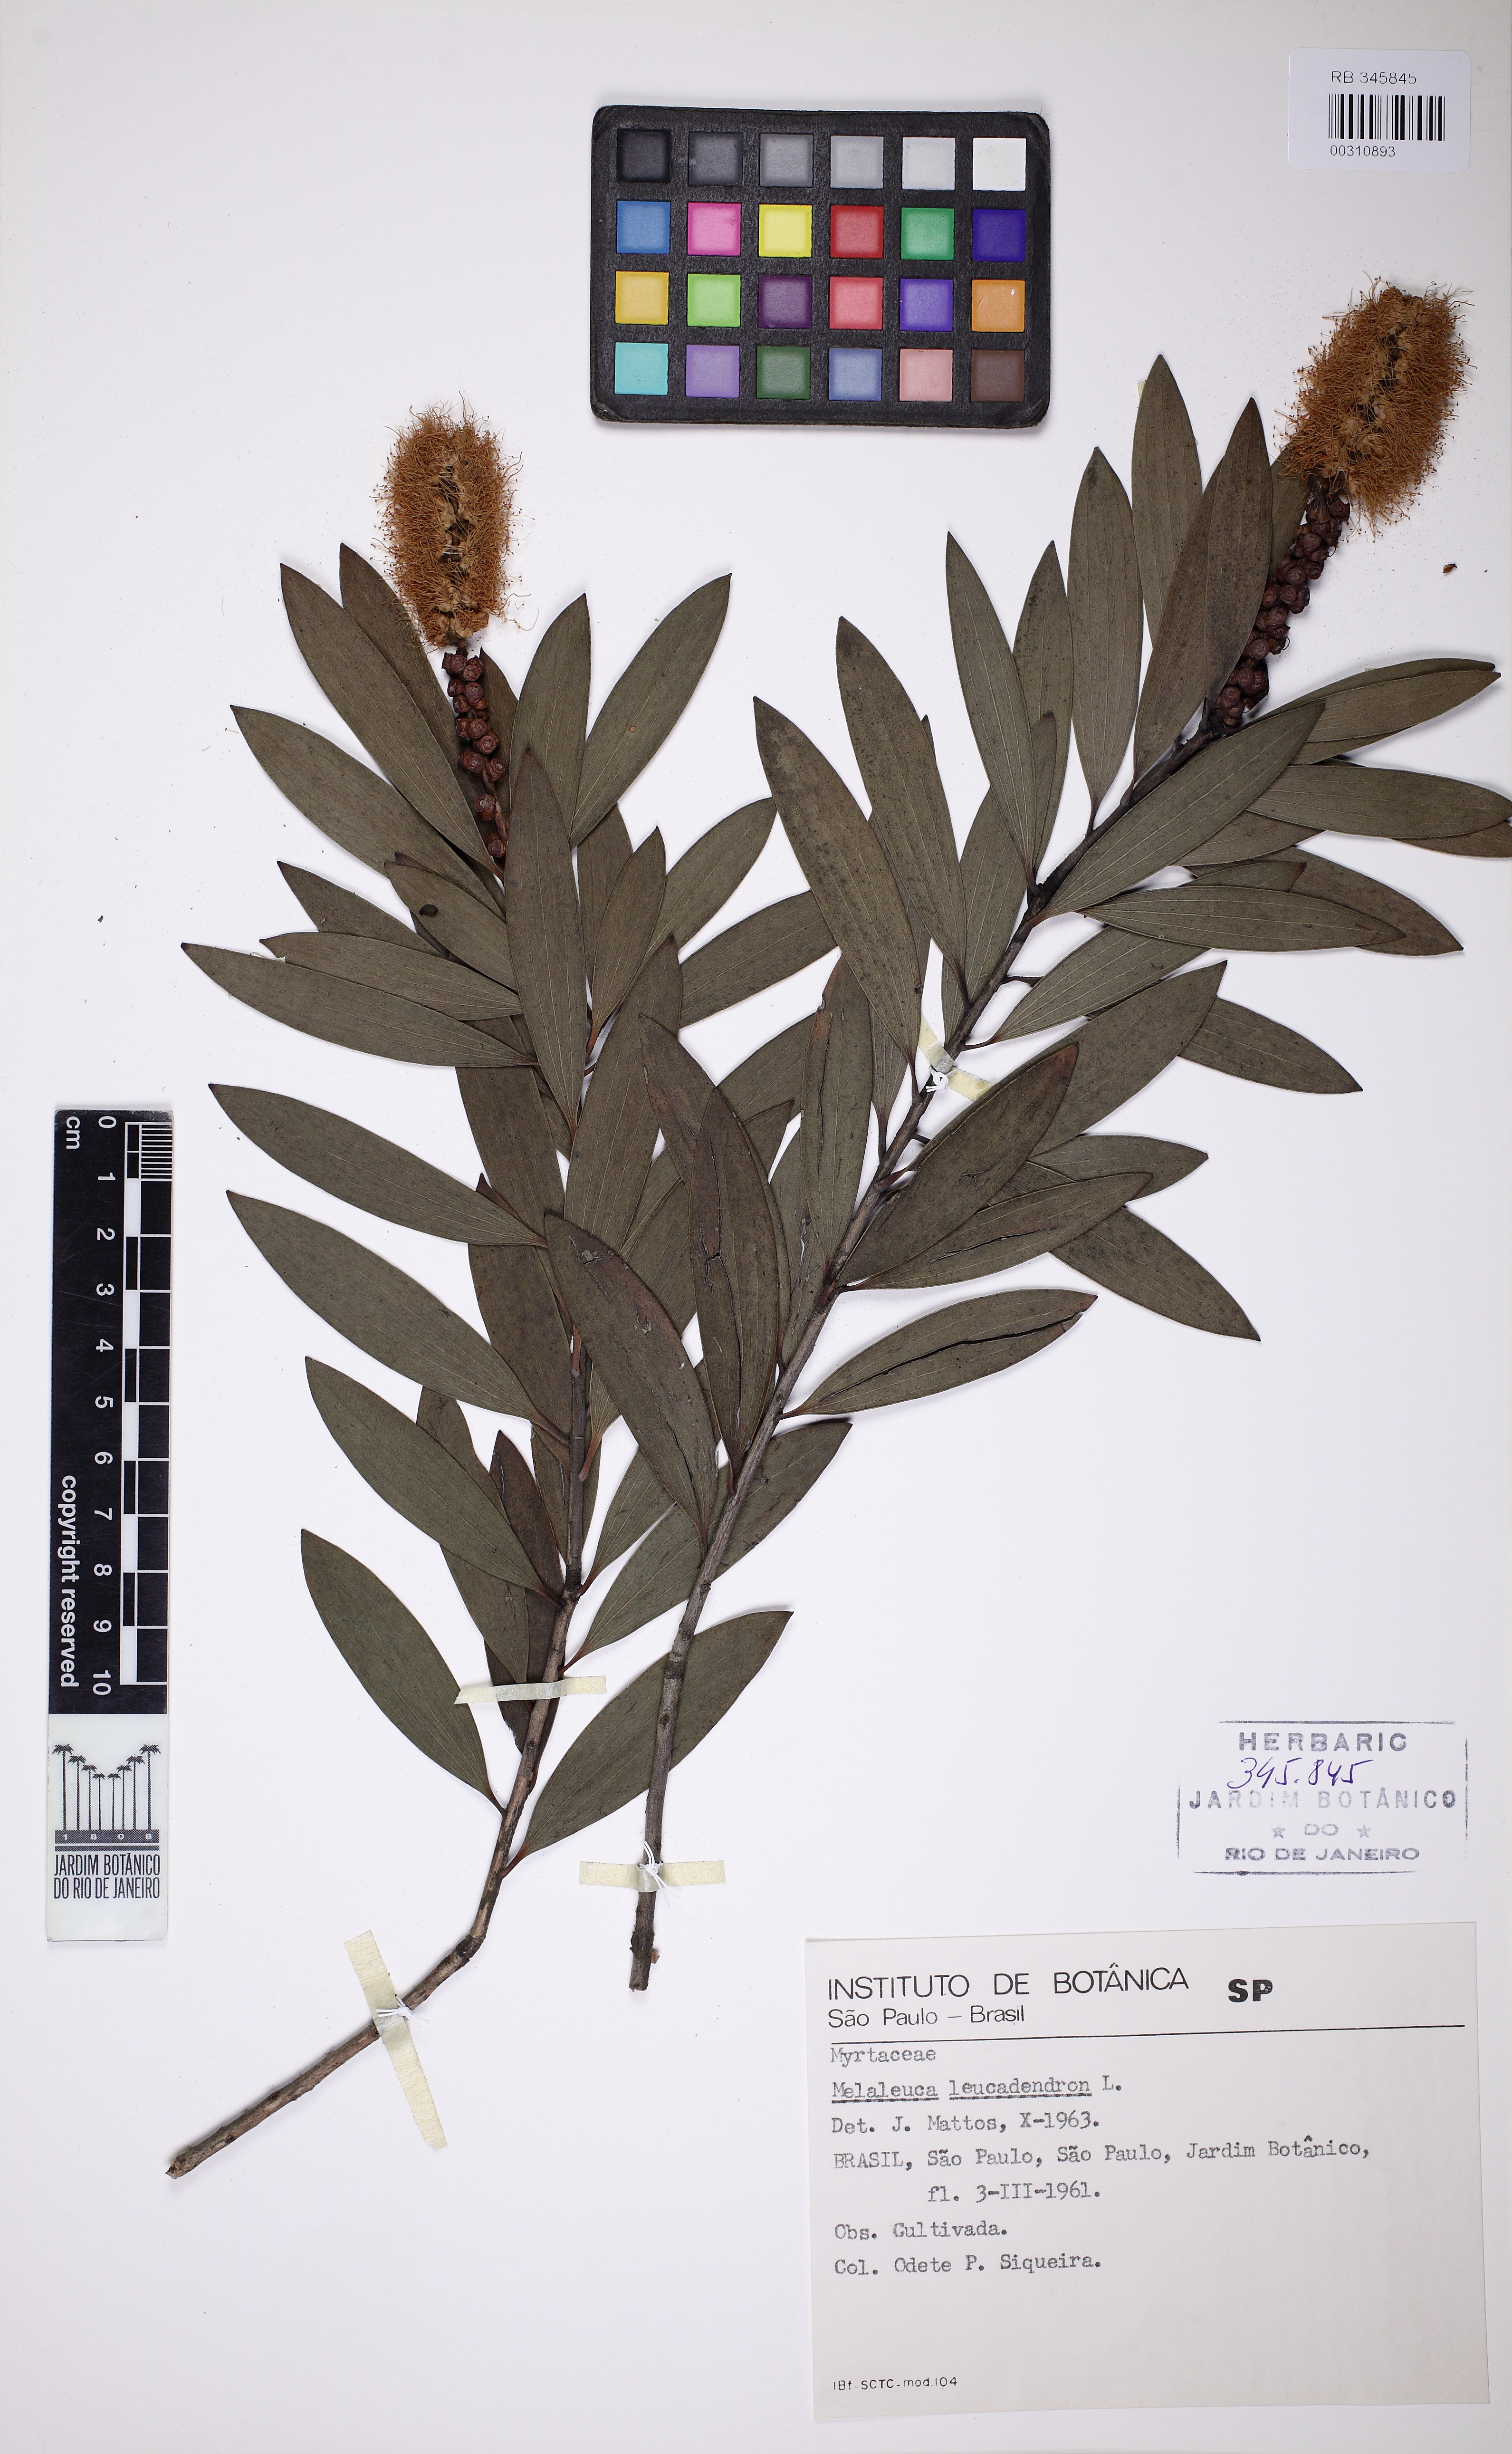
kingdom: Plantae
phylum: Tracheophyta
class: Magnoliopsida
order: Myrtales
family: Myrtaceae
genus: Melaleuca
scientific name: Melaleuca leucadendra
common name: Weeping paperbark
